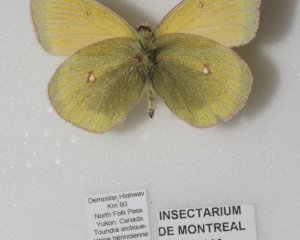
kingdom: Animalia
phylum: Arthropoda
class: Insecta
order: Lepidoptera
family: Pieridae
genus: Colias
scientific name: Colias canadensis
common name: Canadian Sulphur
